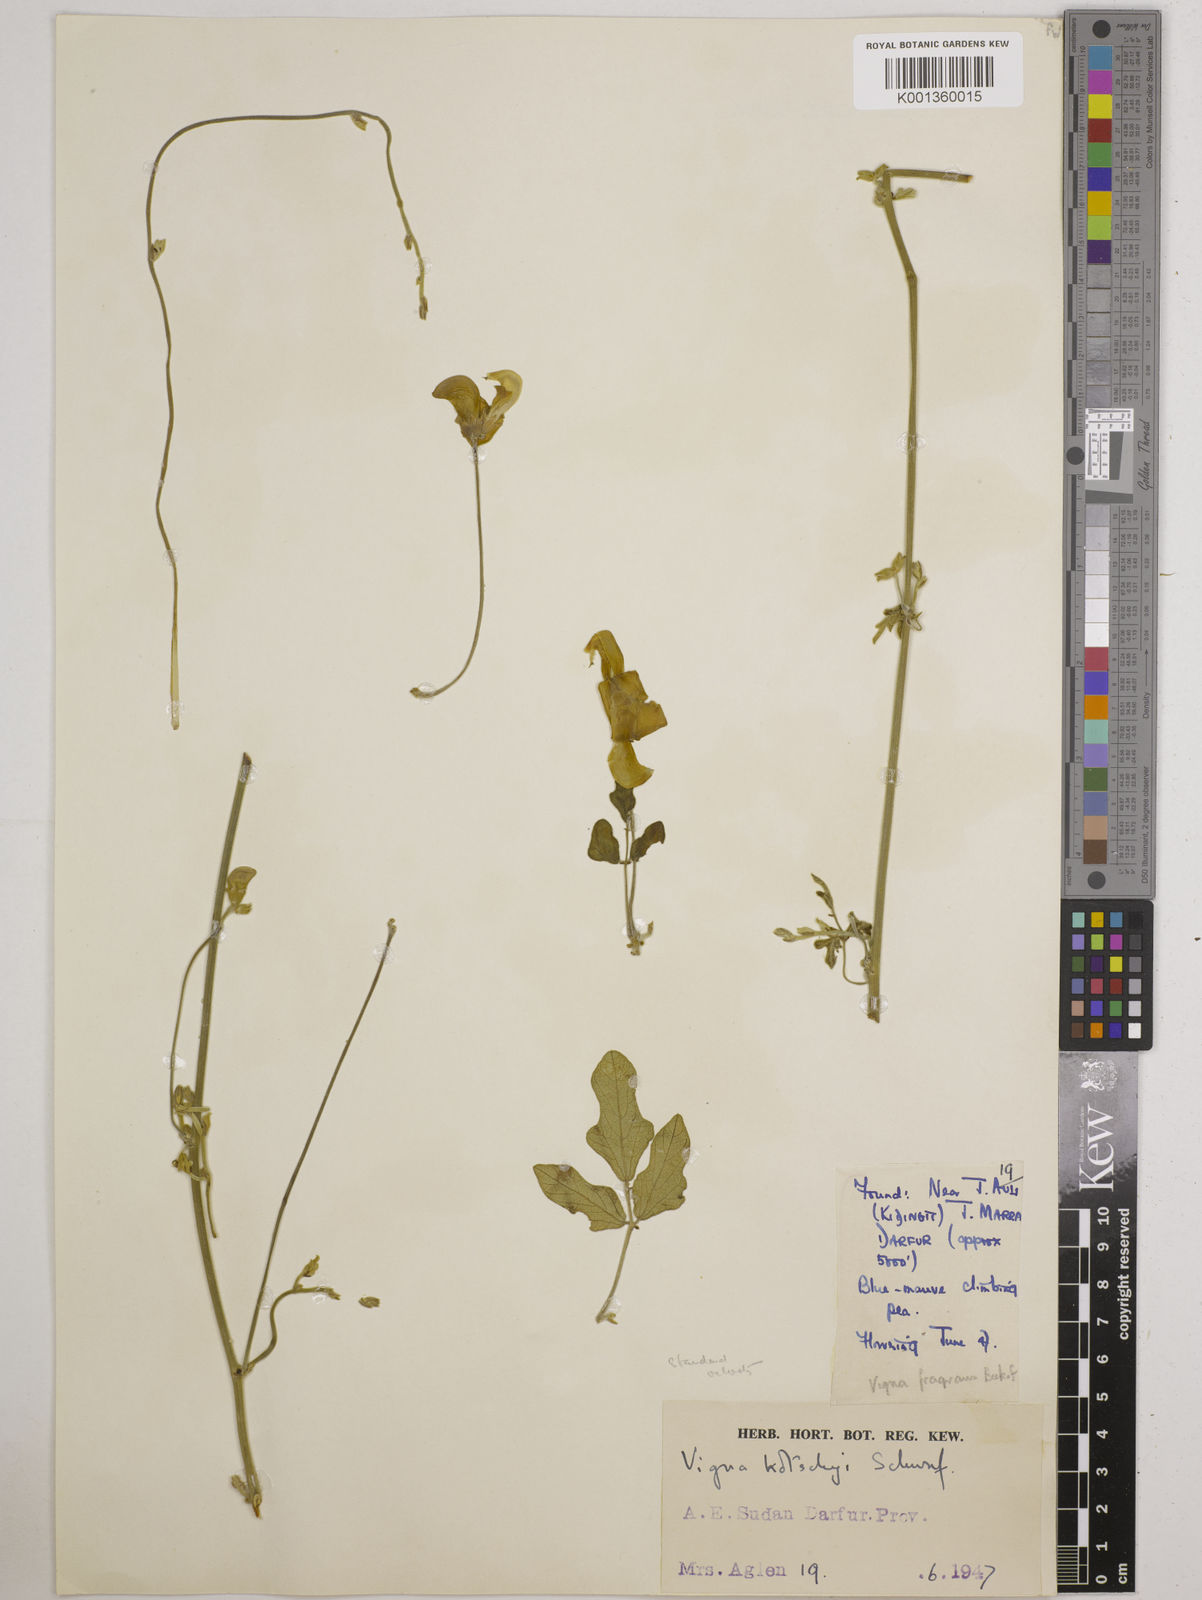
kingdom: Plantae
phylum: Tracheophyta
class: Magnoliopsida
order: Fabales
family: Fabaceae
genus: Vigna
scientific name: Vigna
